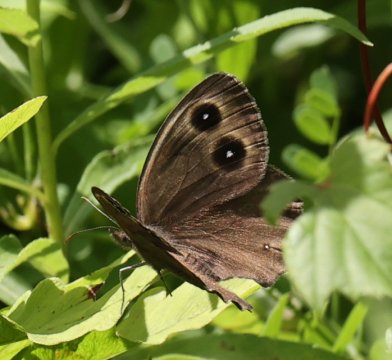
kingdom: Animalia
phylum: Arthropoda
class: Insecta
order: Lepidoptera
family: Nymphalidae
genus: Cercyonis
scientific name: Cercyonis pegala
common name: Common Wood-Nymph
